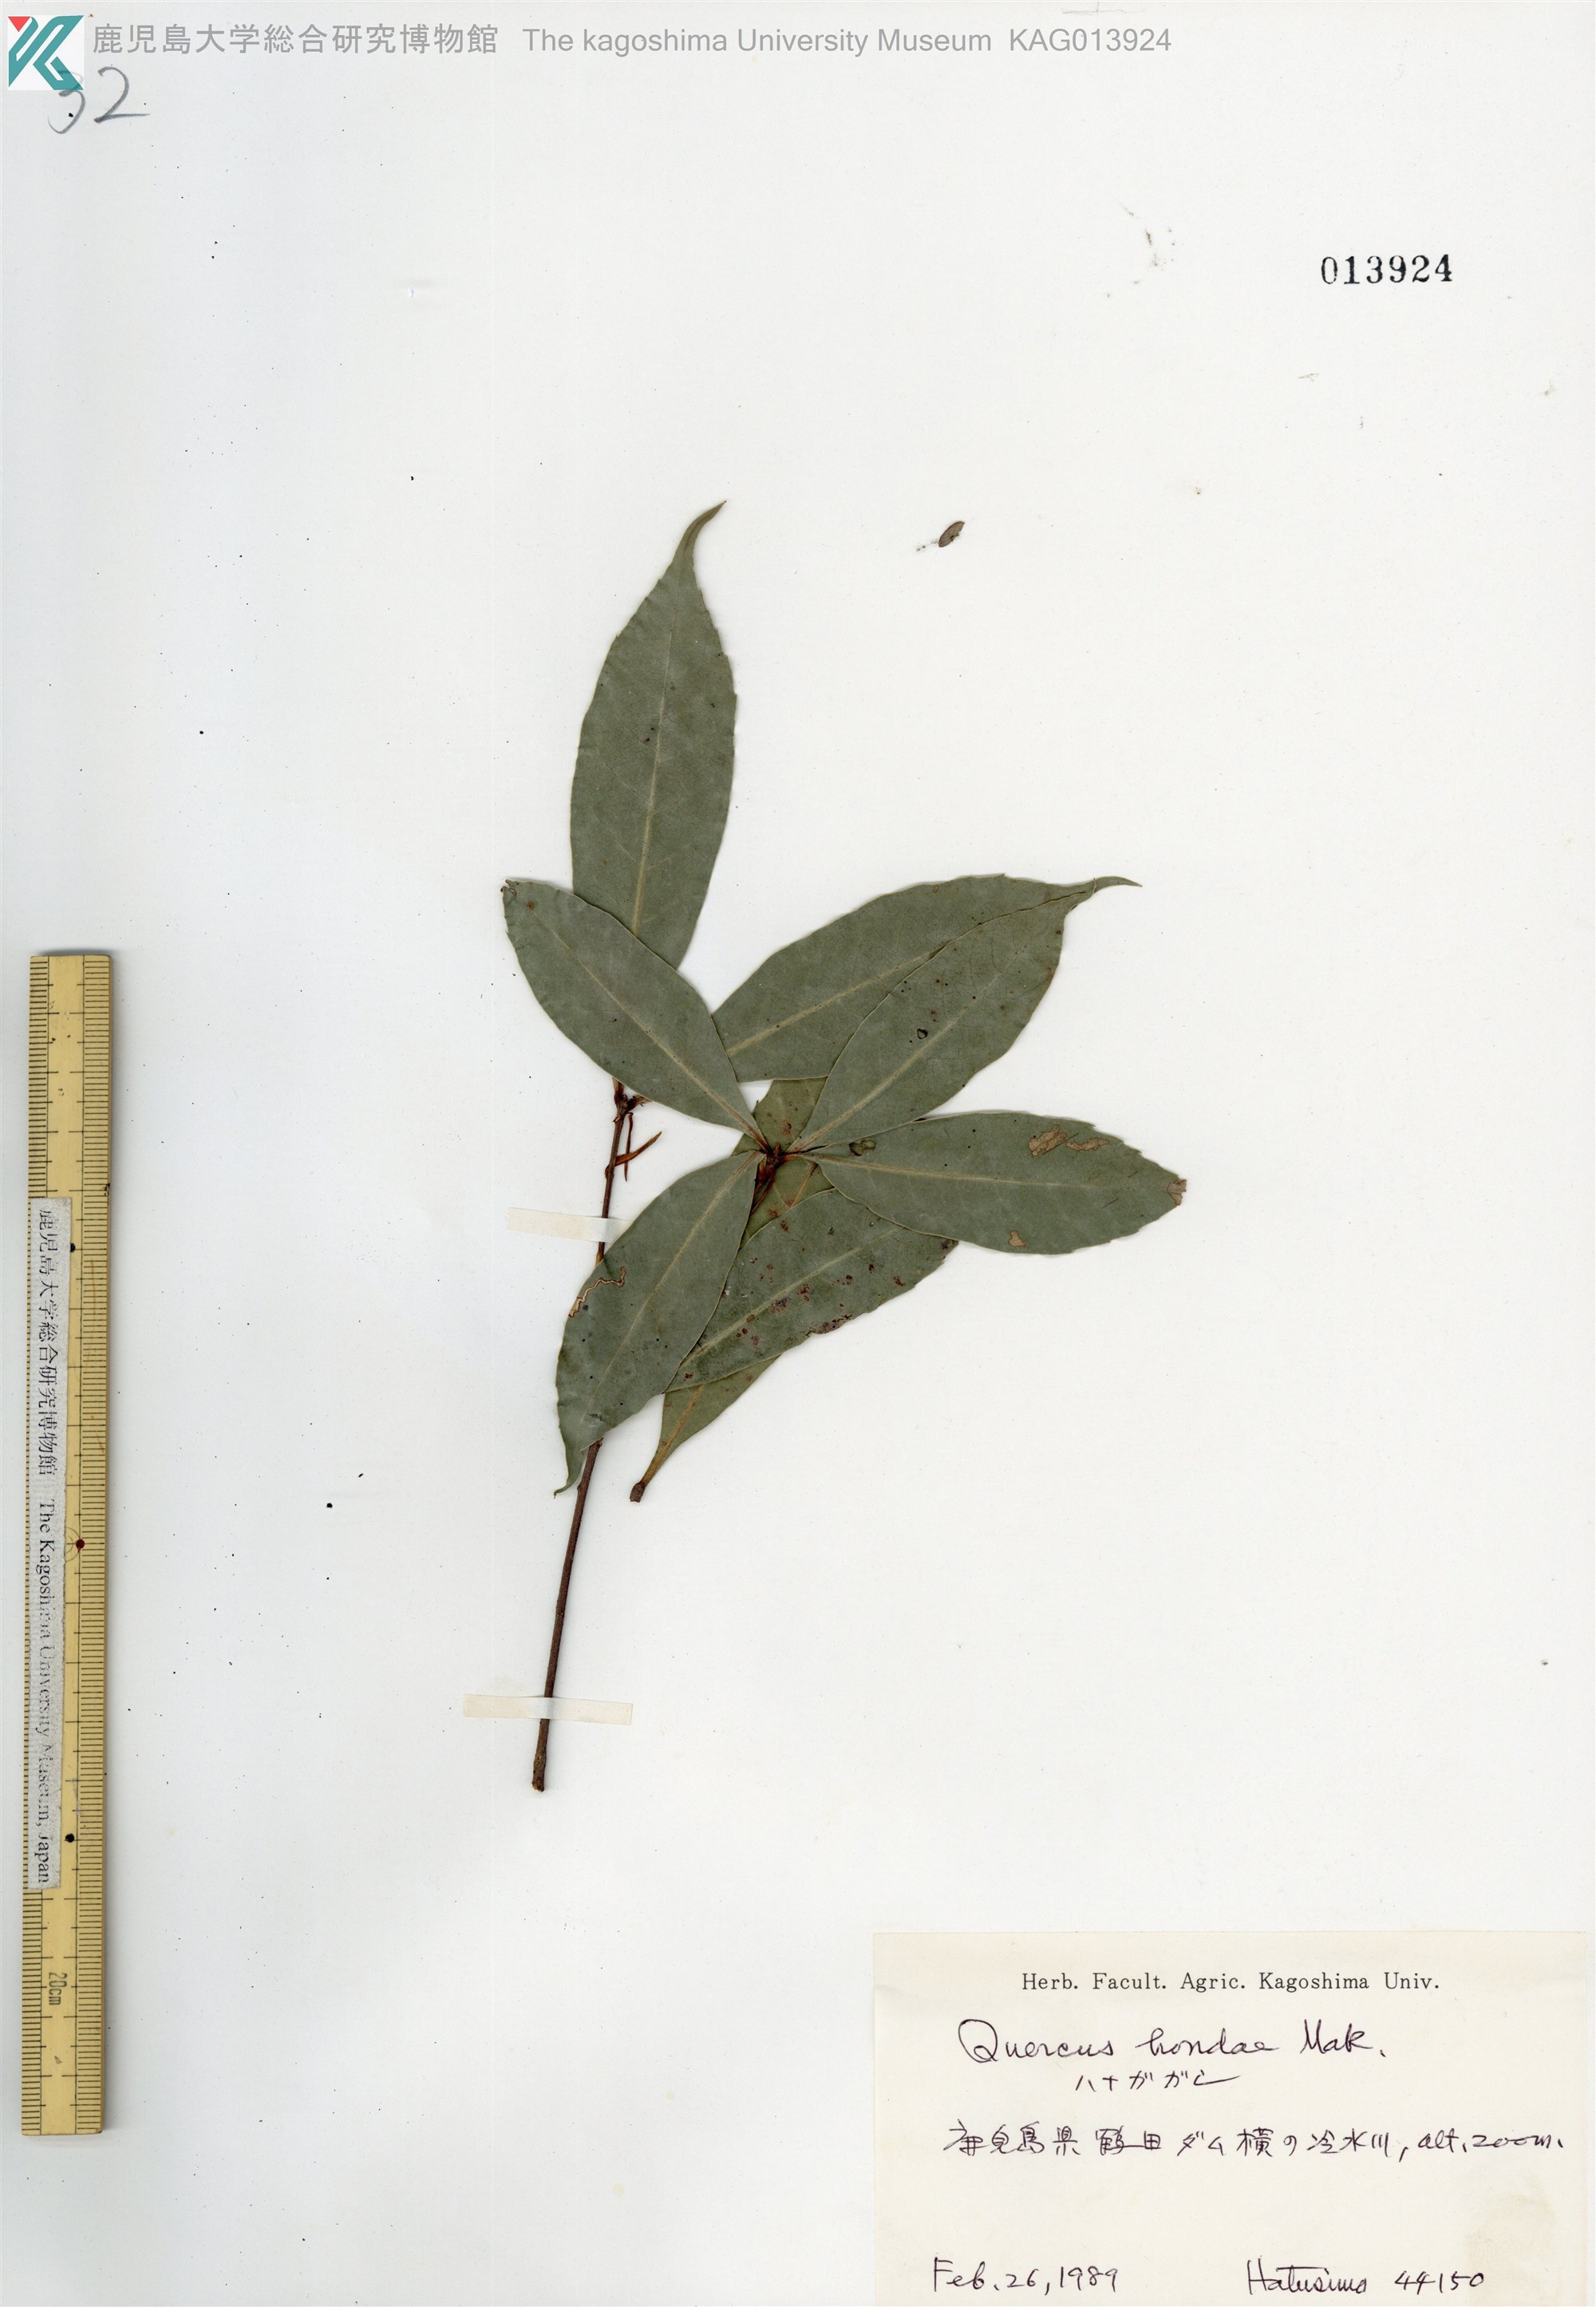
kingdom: Plantae
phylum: Tracheophyta
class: Magnoliopsida
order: Fagales
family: Fagaceae
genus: Quercus
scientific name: Quercus hondae
